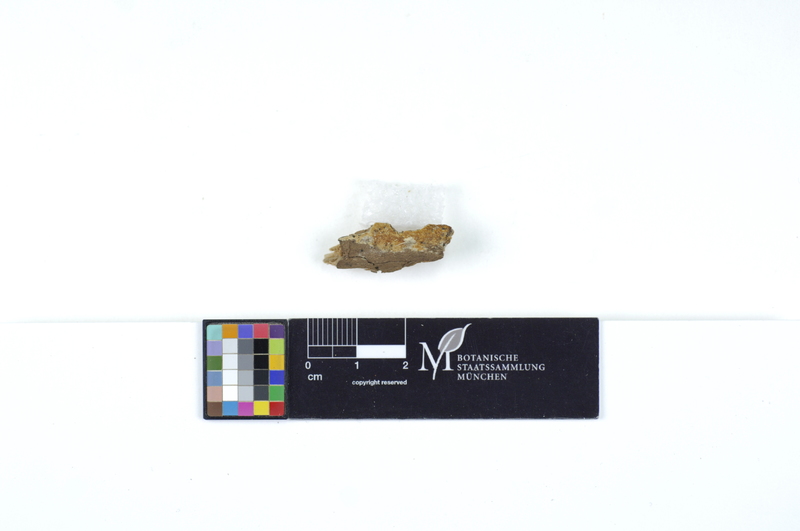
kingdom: Fungi
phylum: Basidiomycota
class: Agaricomycetes
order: Polyporales
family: Irpicaceae
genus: Ceriporia
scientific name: Ceriporia viridans
